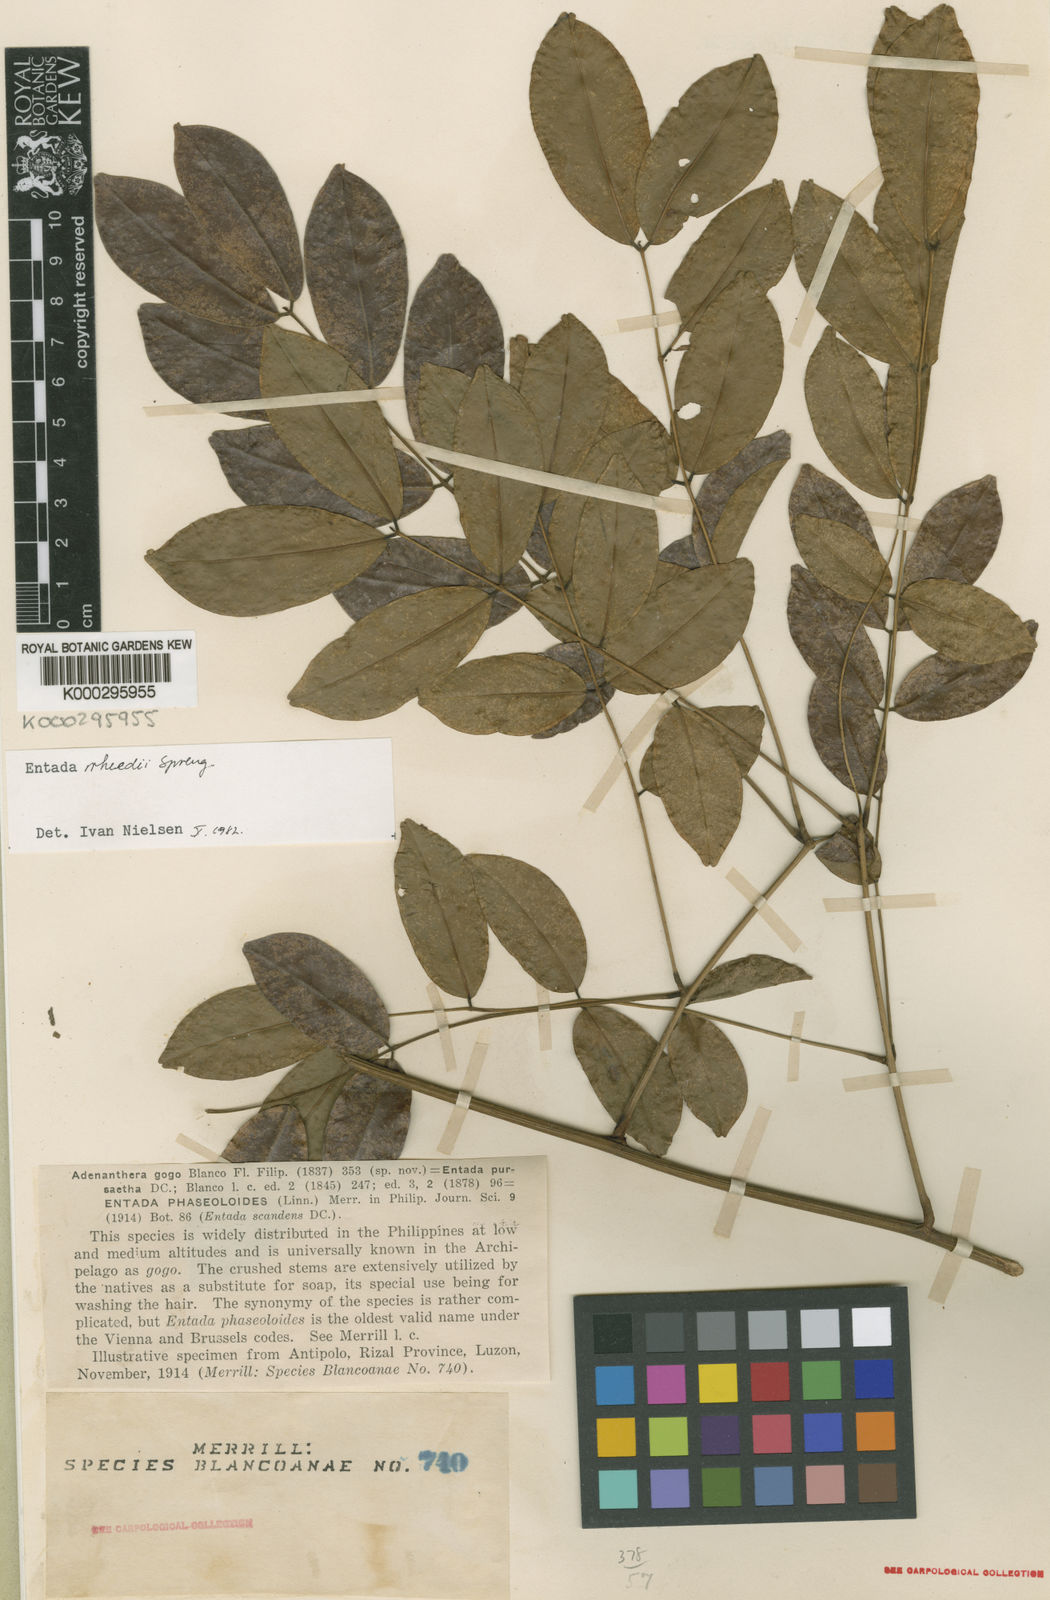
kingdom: Plantae
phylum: Tracheophyta
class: Magnoliopsida
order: Fabales
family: Fabaceae
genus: Entada
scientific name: Entada phaseoloides
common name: Matchbox-bean
